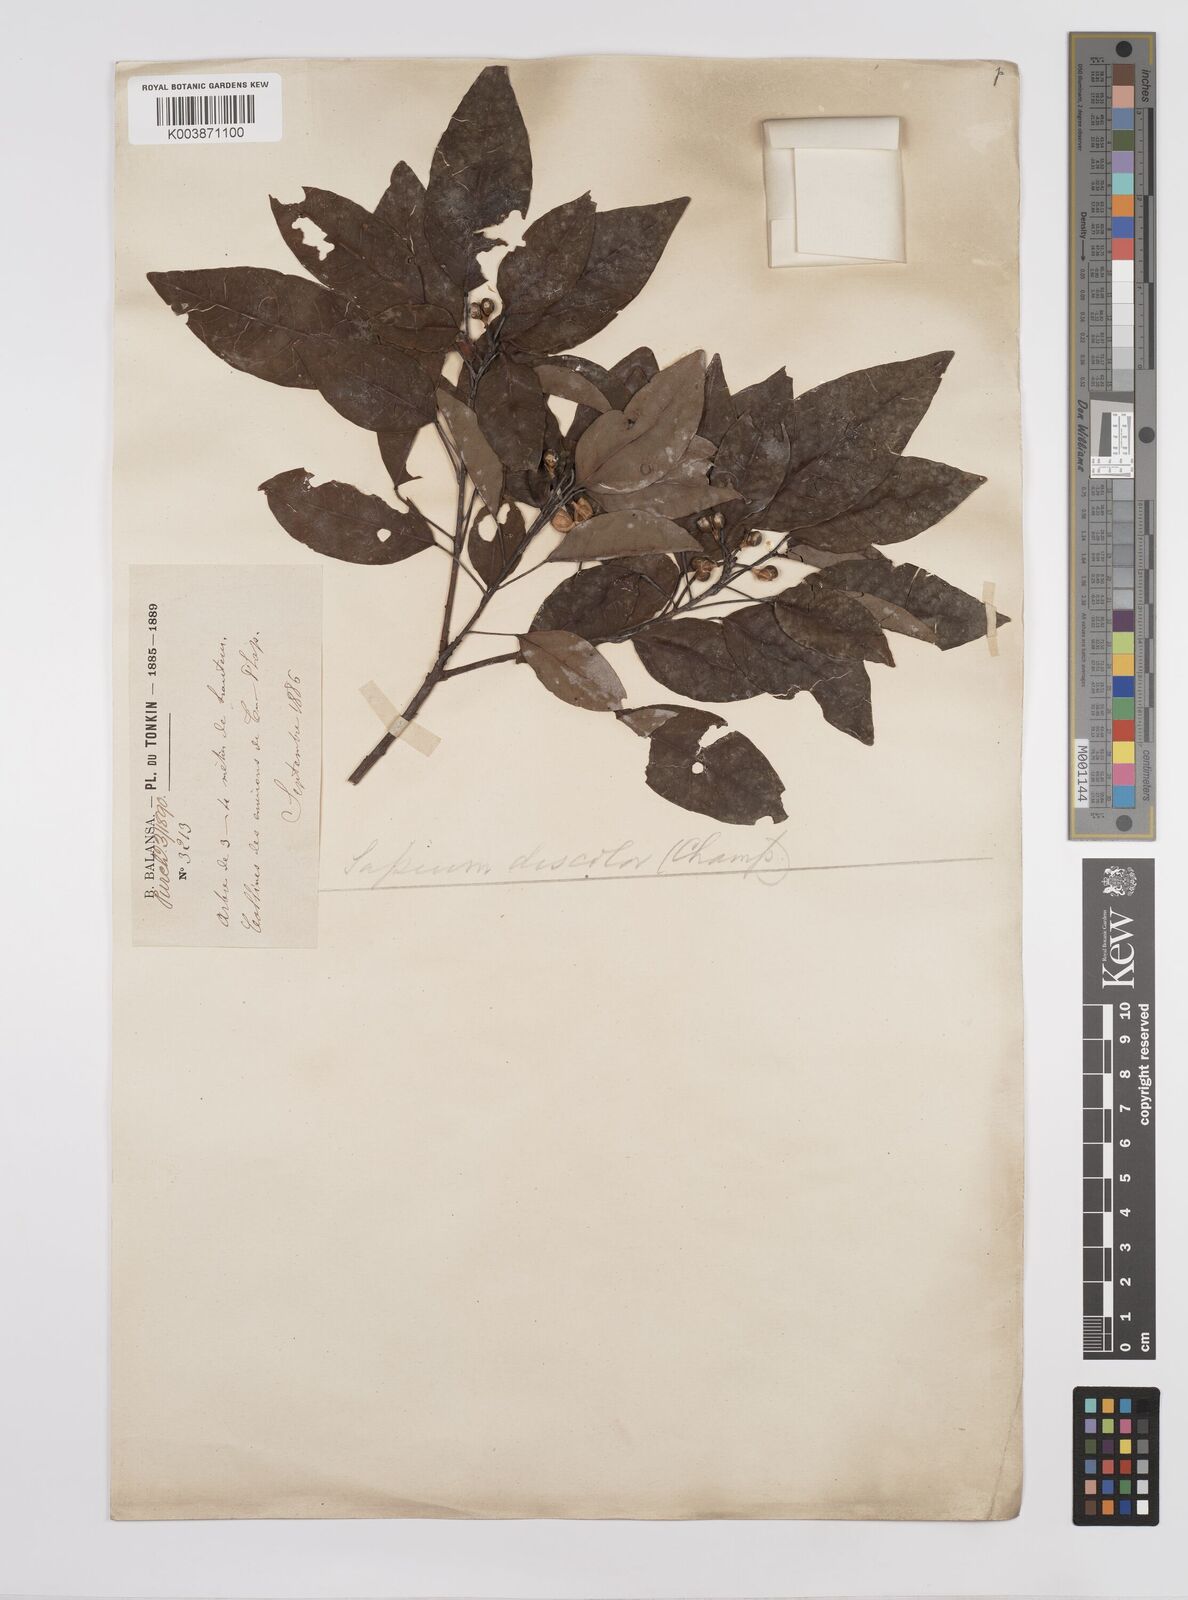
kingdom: Plantae
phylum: Tracheophyta
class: Magnoliopsida
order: Malpighiales
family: Euphorbiaceae
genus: Triadica
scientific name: Triadica cochinchinensis
